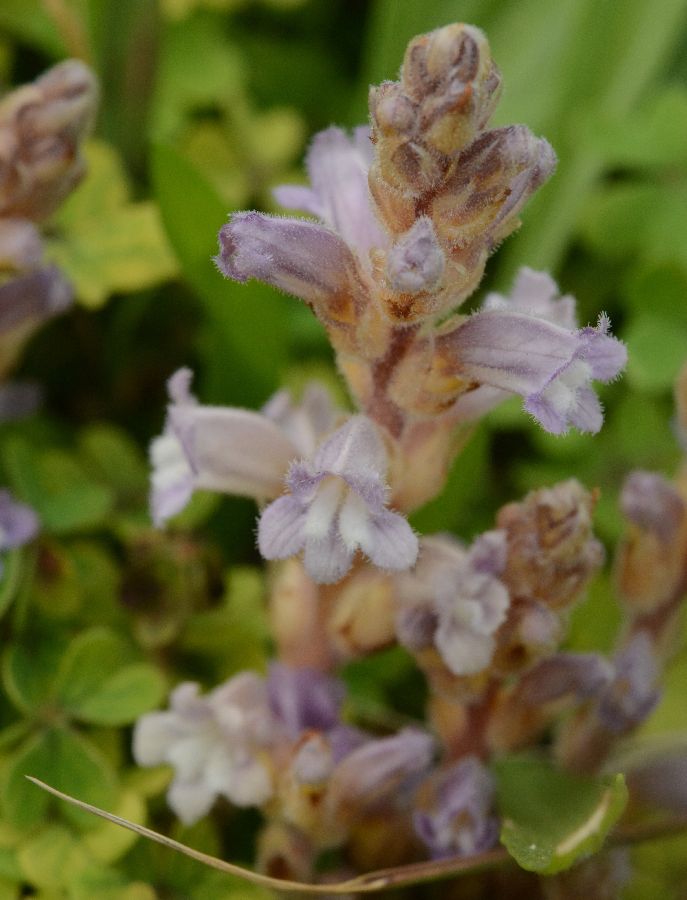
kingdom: Plantae
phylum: Tracheophyta
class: Magnoliopsida
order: Lamiales
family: Orobanchaceae
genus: Orobanche
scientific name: Orobanche
